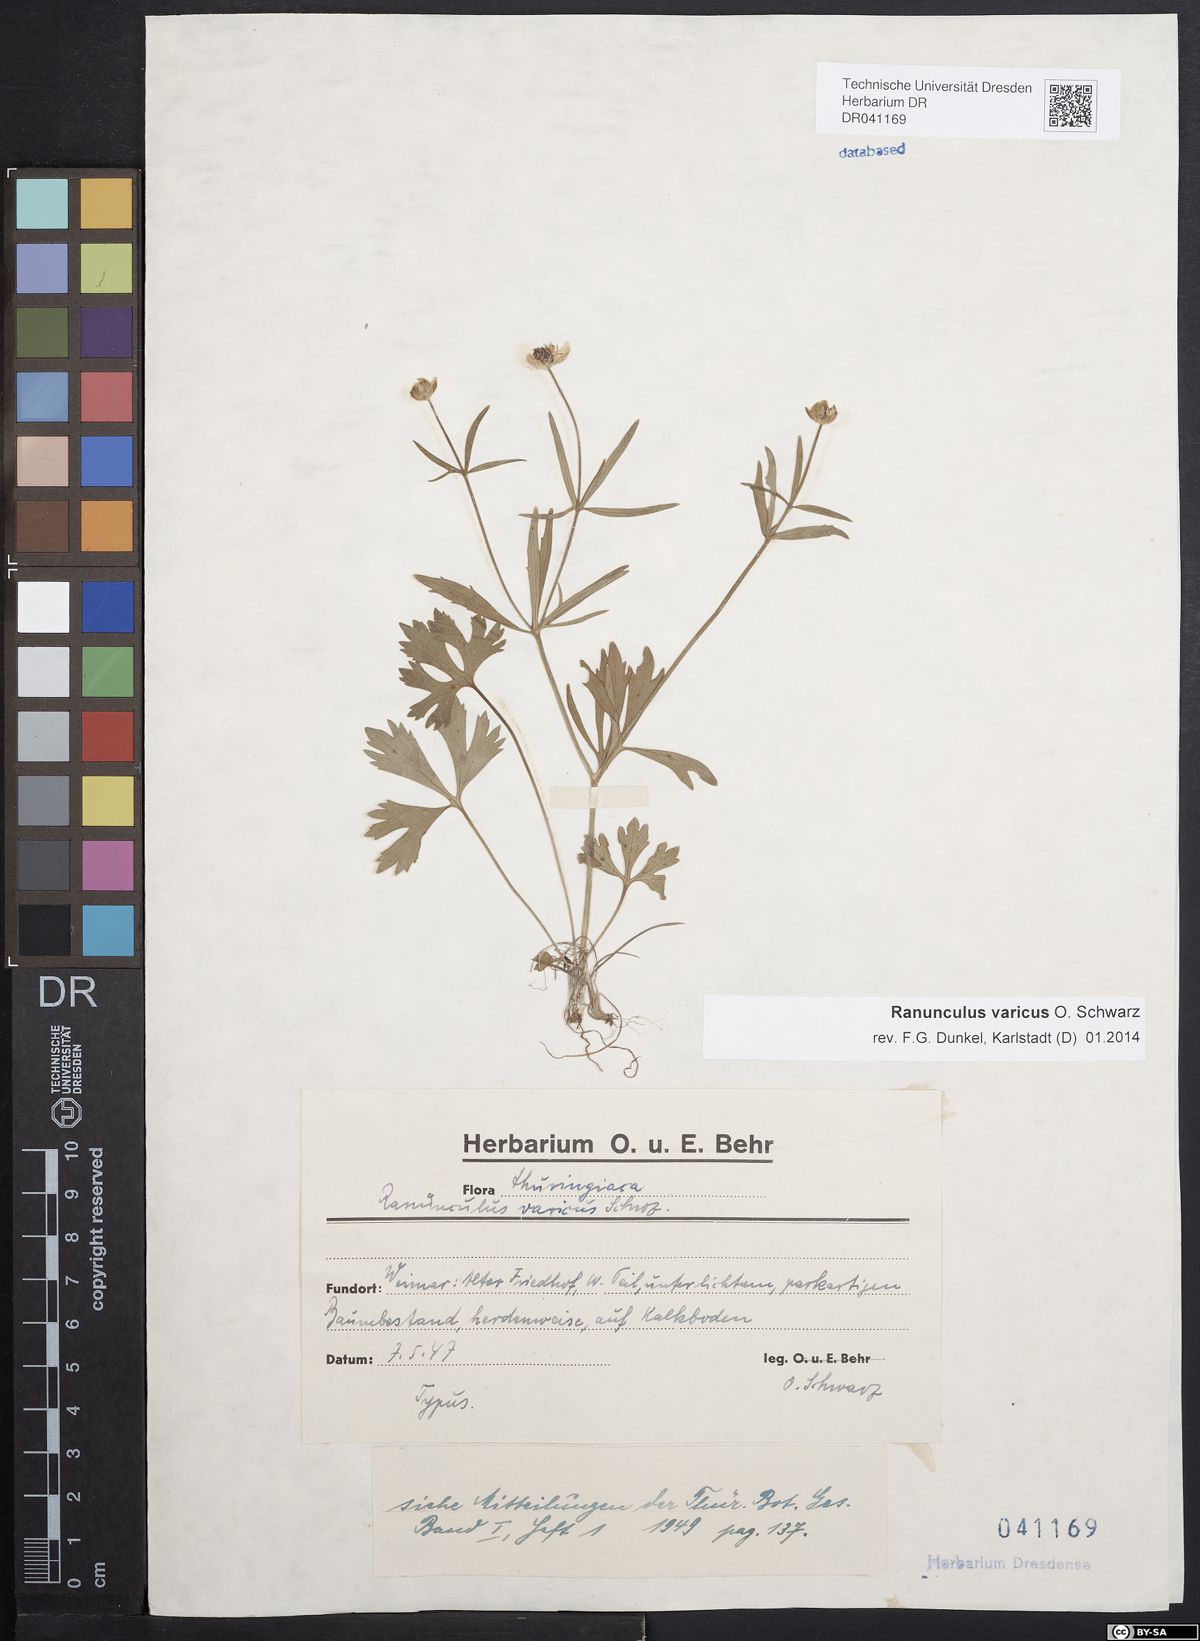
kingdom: Plantae
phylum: Tracheophyta
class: Magnoliopsida
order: Ranunculales
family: Ranunculaceae
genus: Ranunculus
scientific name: Ranunculus varicus
